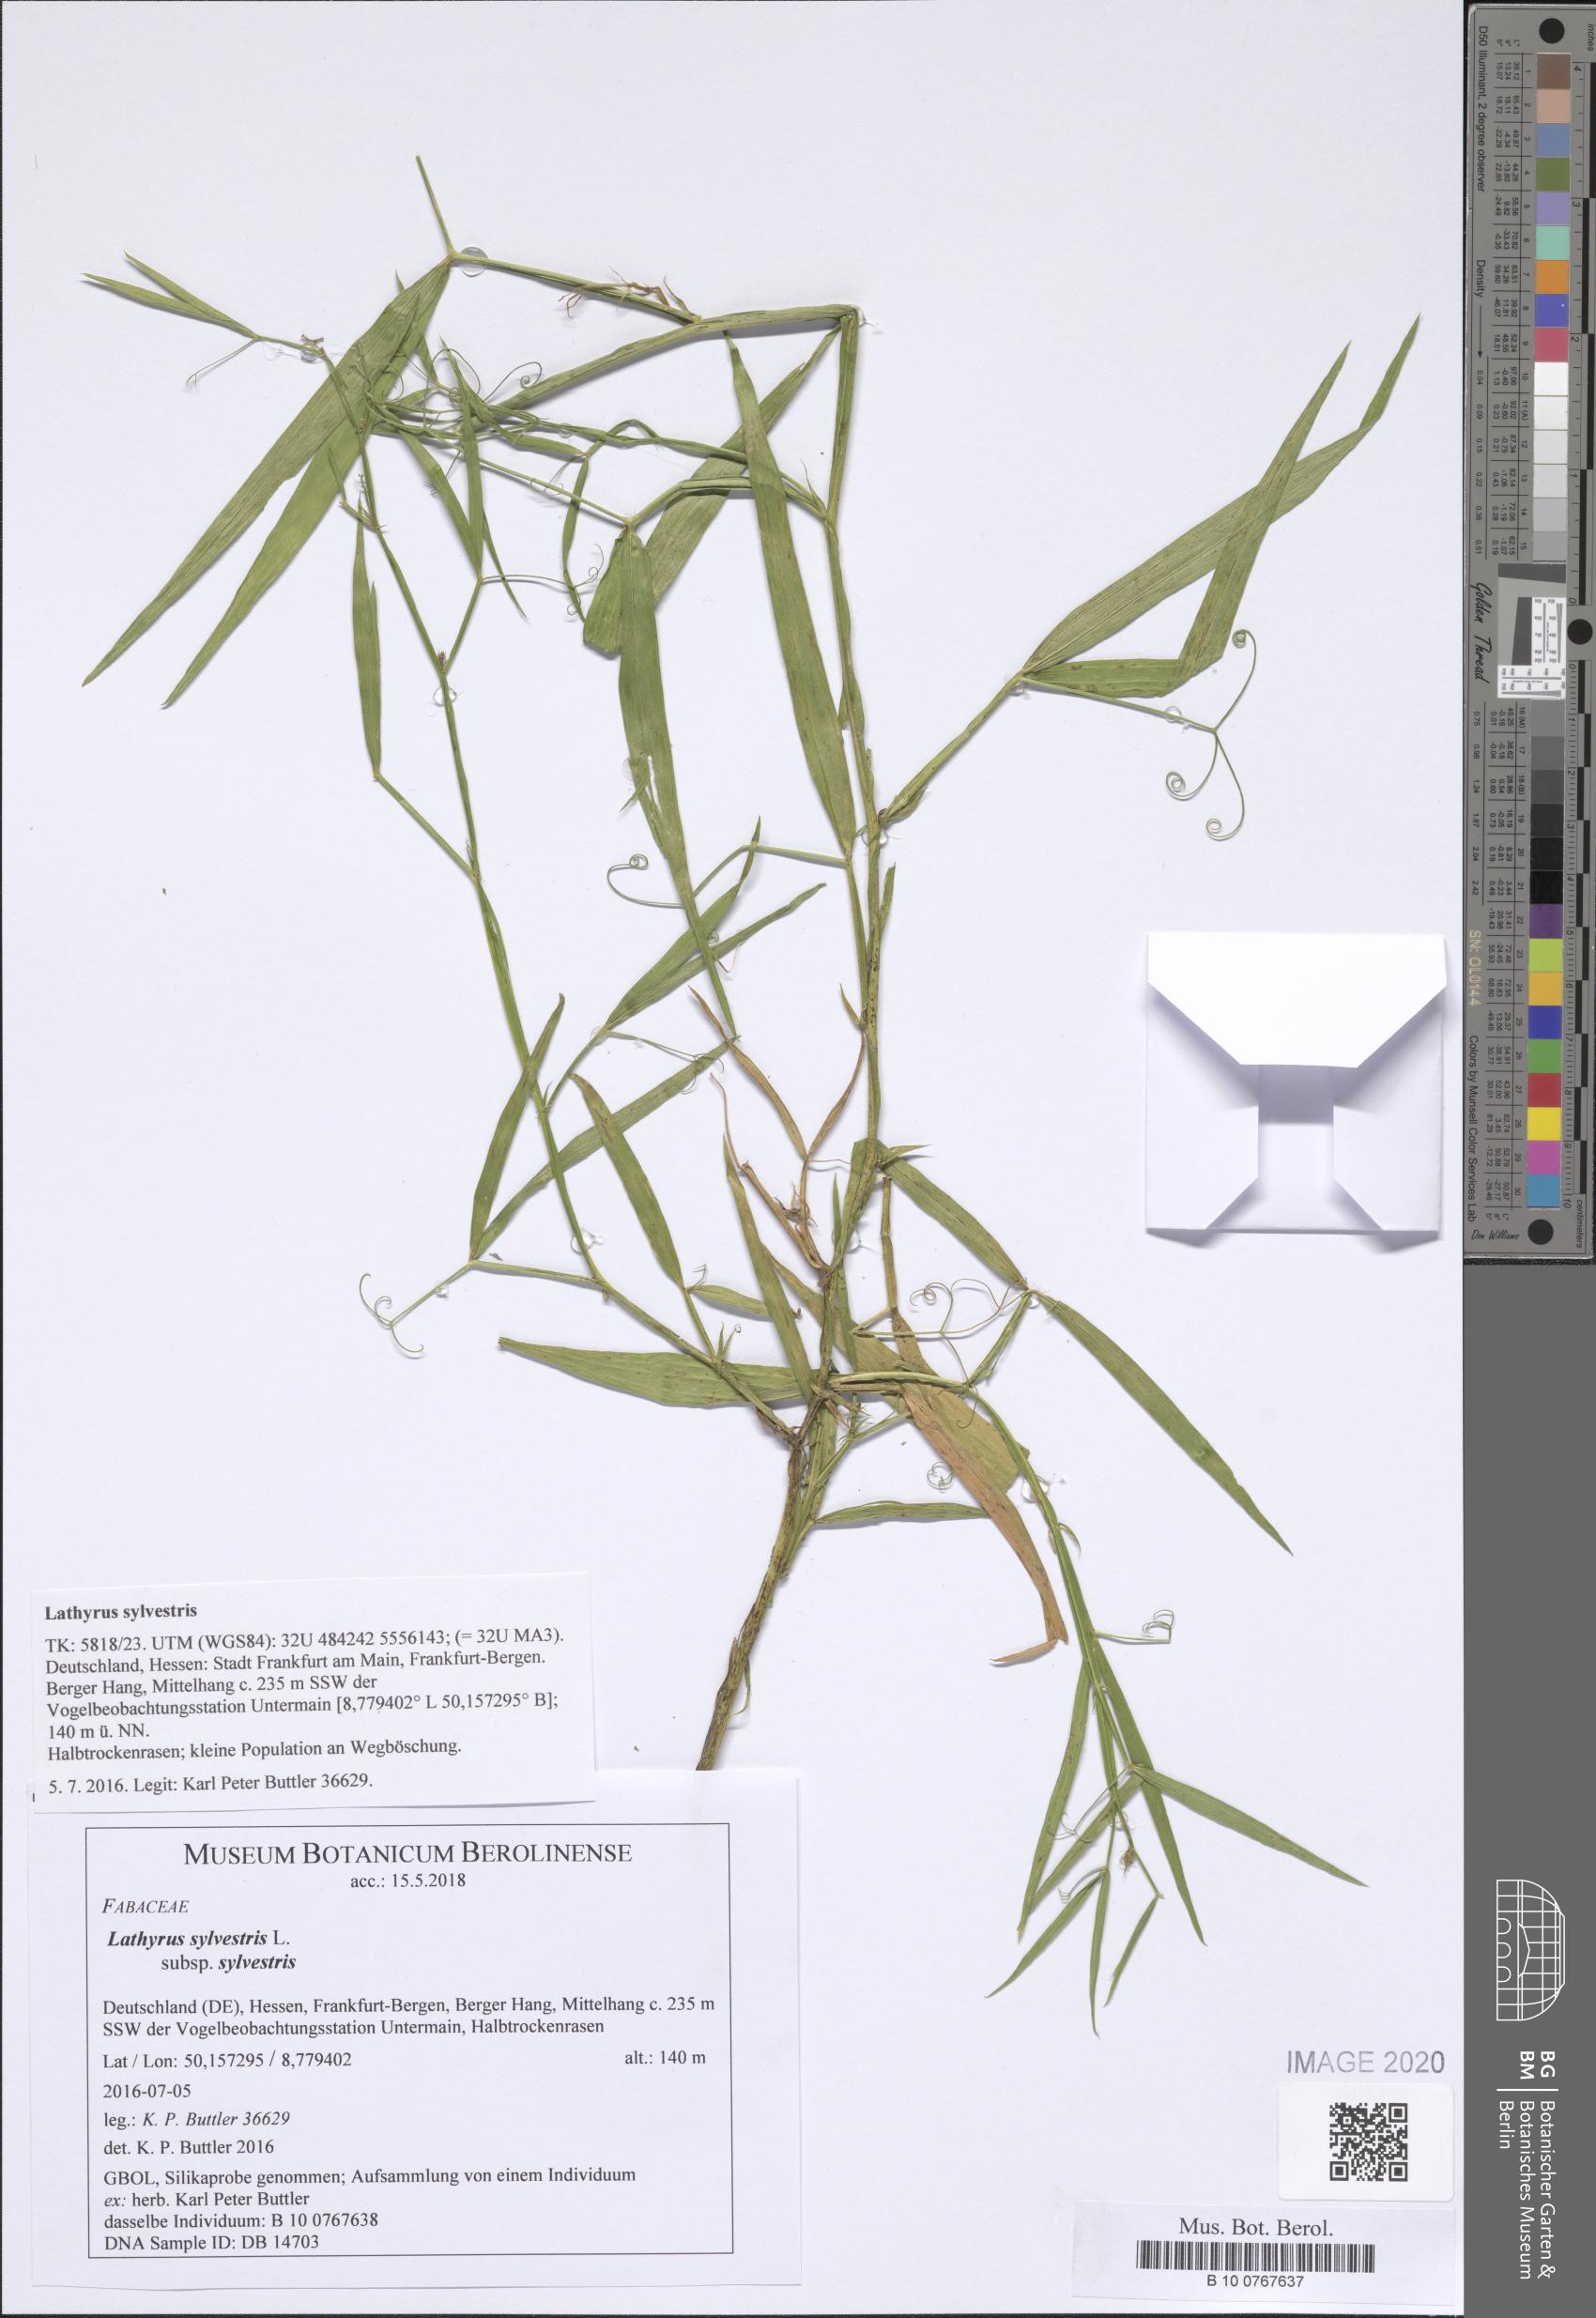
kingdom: Plantae
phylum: Tracheophyta
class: Magnoliopsida
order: Fabales
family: Fabaceae
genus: Lathyrus
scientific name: Lathyrus sylvestris
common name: Flat pea
